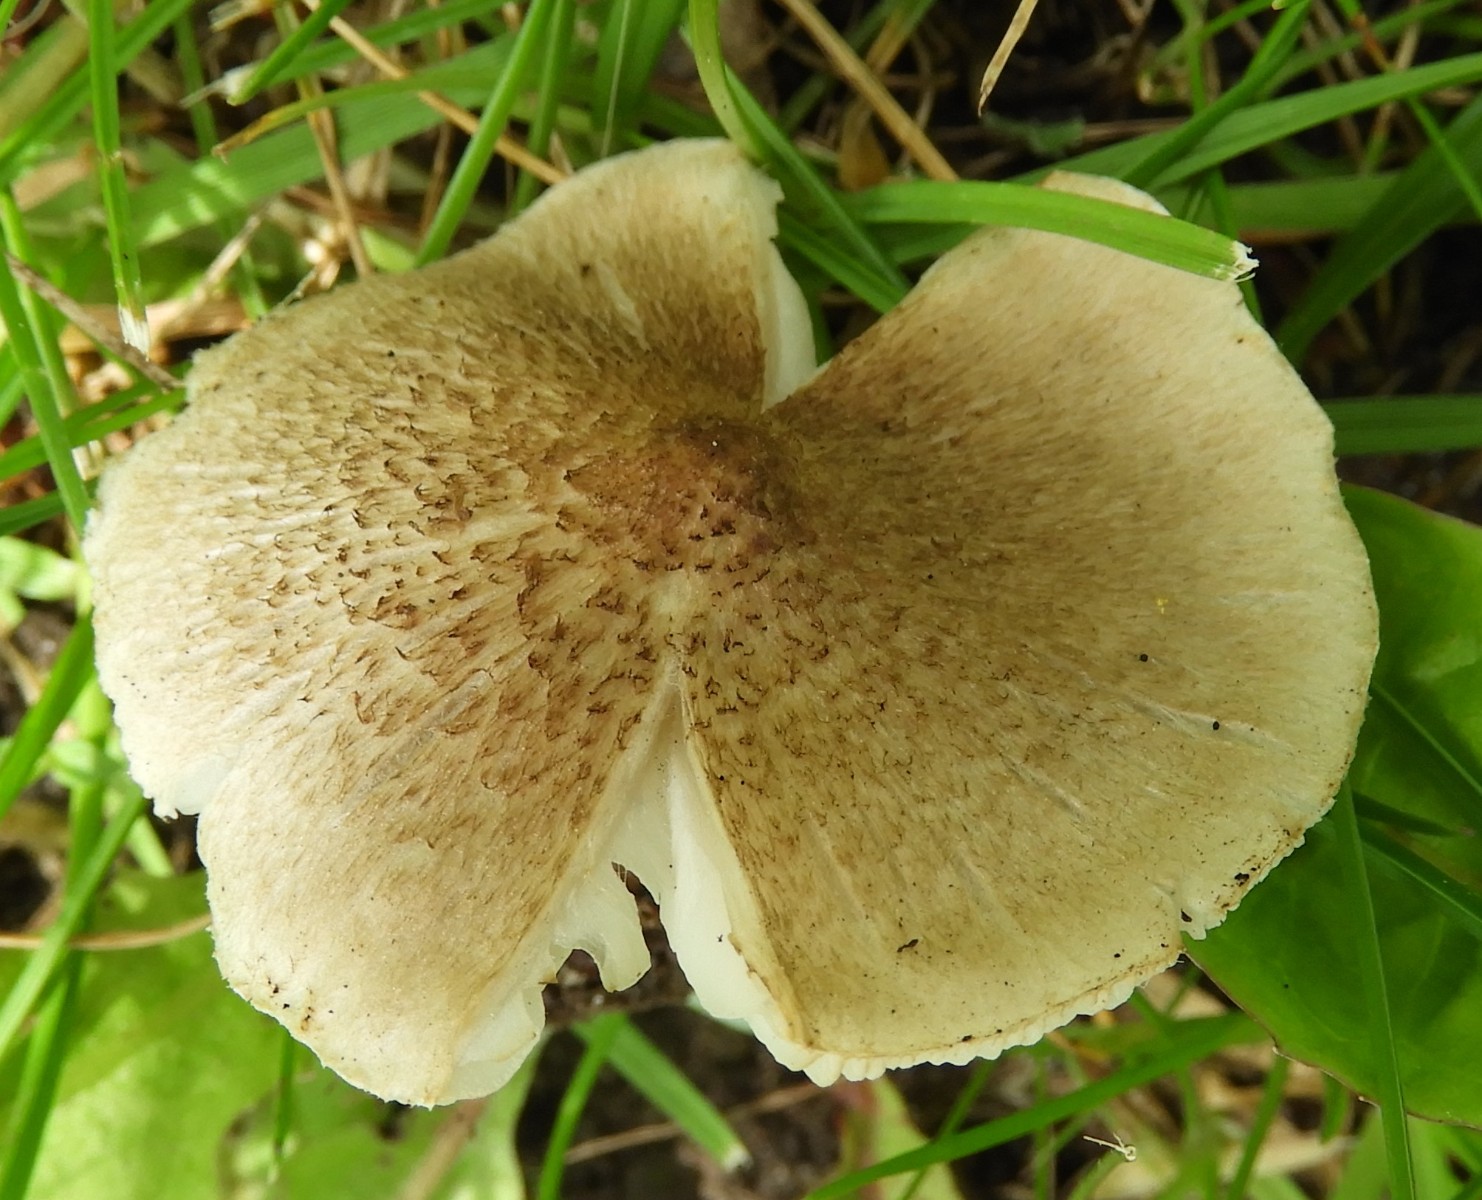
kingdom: Fungi
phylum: Basidiomycota
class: Agaricomycetes
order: Agaricales
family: Tricholomataceae
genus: Tricholoma
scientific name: Tricholoma scalpturatum
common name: gulplettet ridderhat
